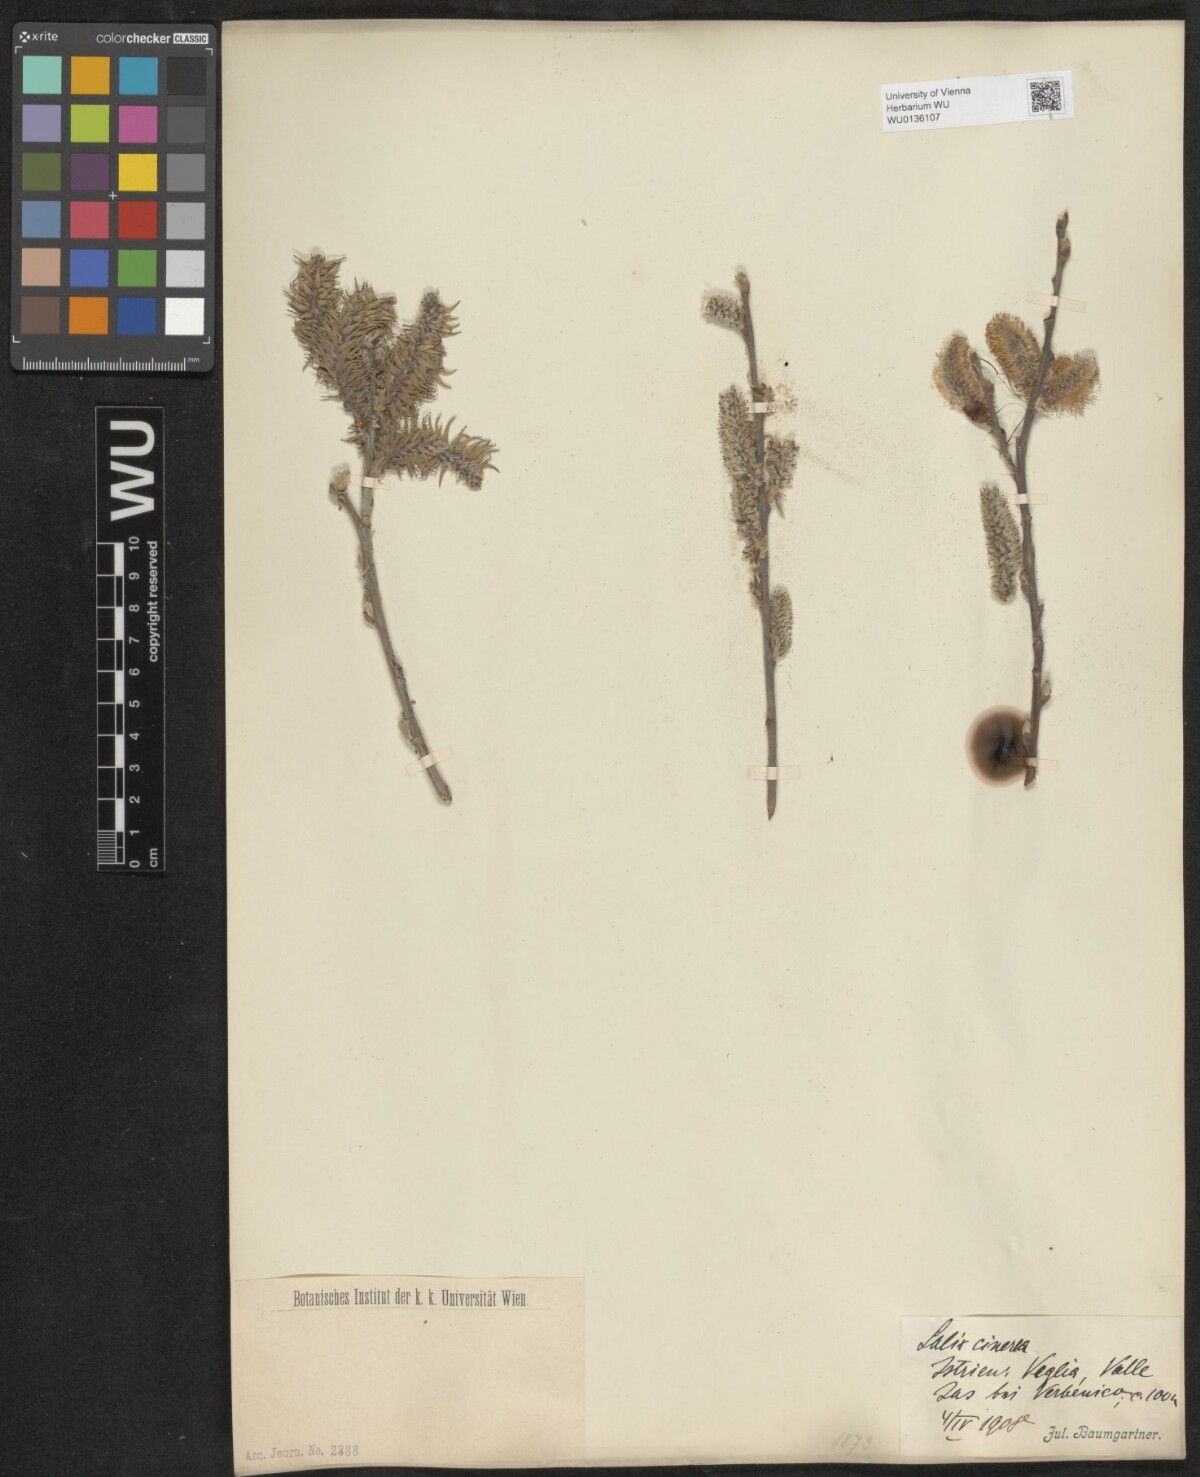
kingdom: Plantae
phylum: Tracheophyta
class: Magnoliopsida
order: Malpighiales
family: Salicaceae
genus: Salix
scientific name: Salix cinerea
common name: Common sallow
